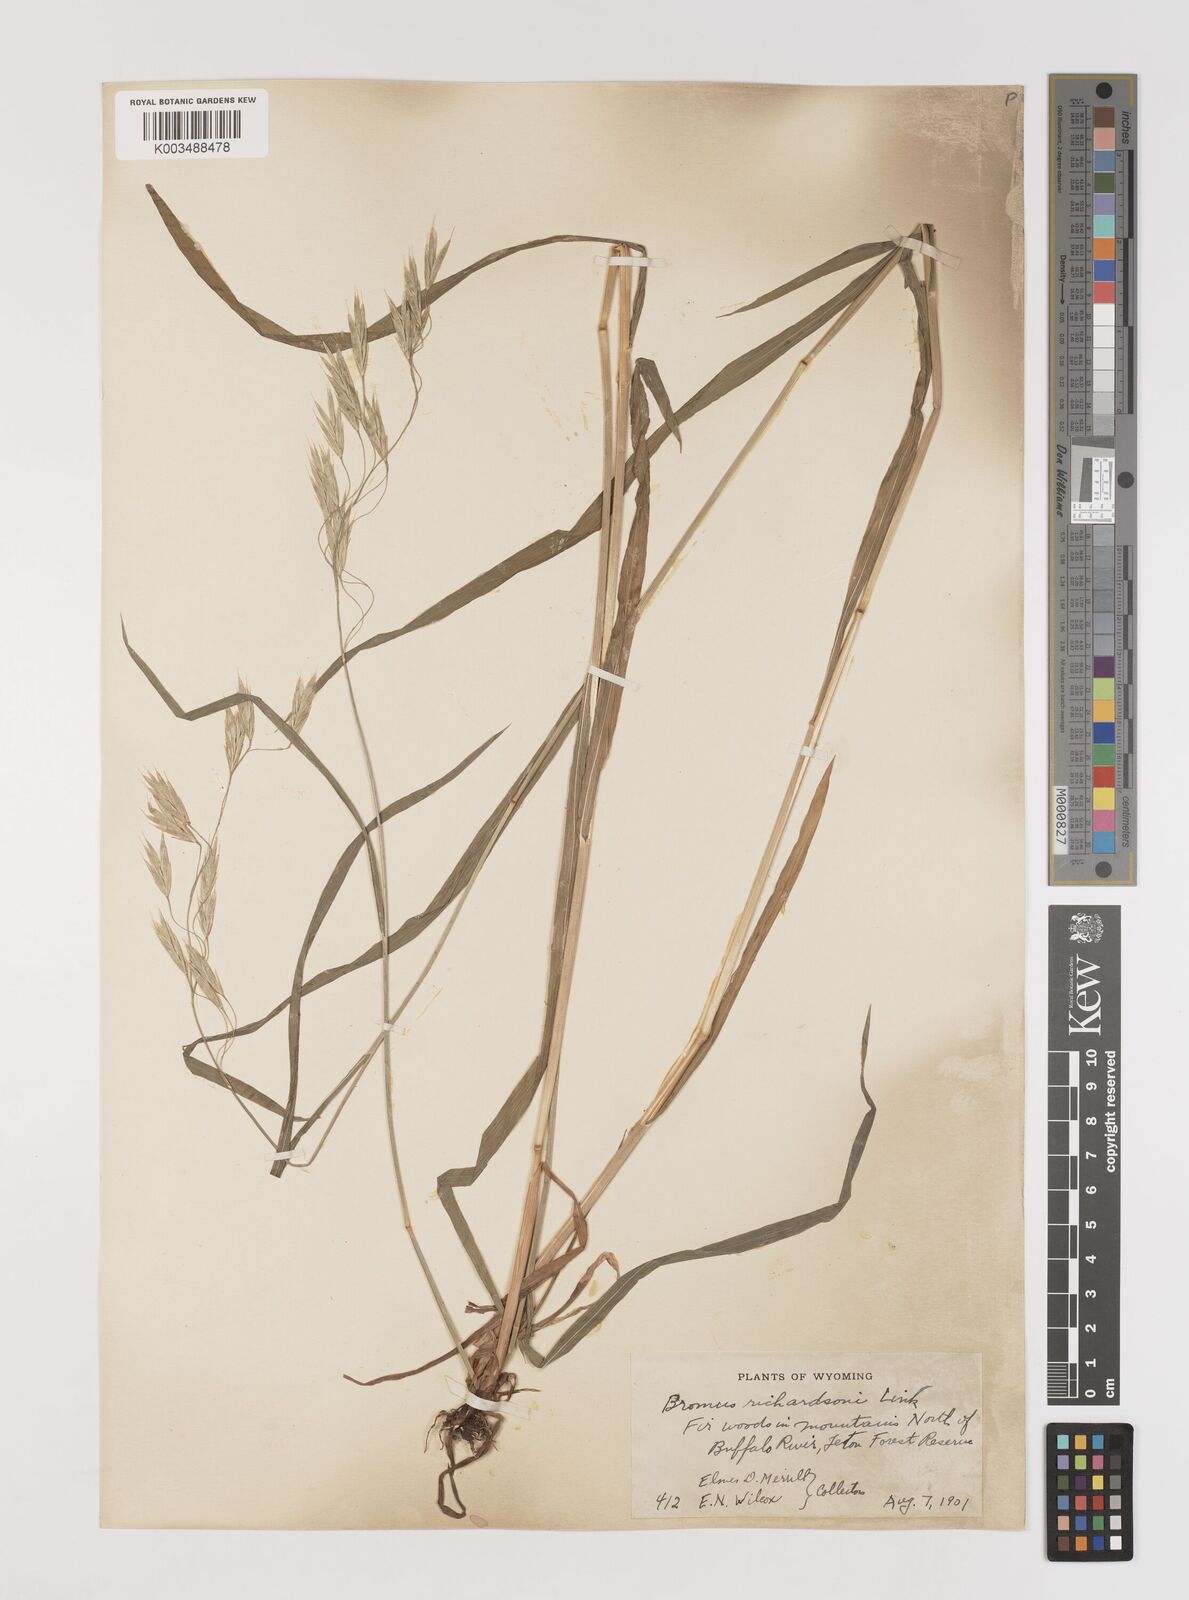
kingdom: Plantae
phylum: Tracheophyta
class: Liliopsida
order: Poales
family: Poaceae
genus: Bromus
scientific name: Bromus richardsonii
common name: Richardson's brome
